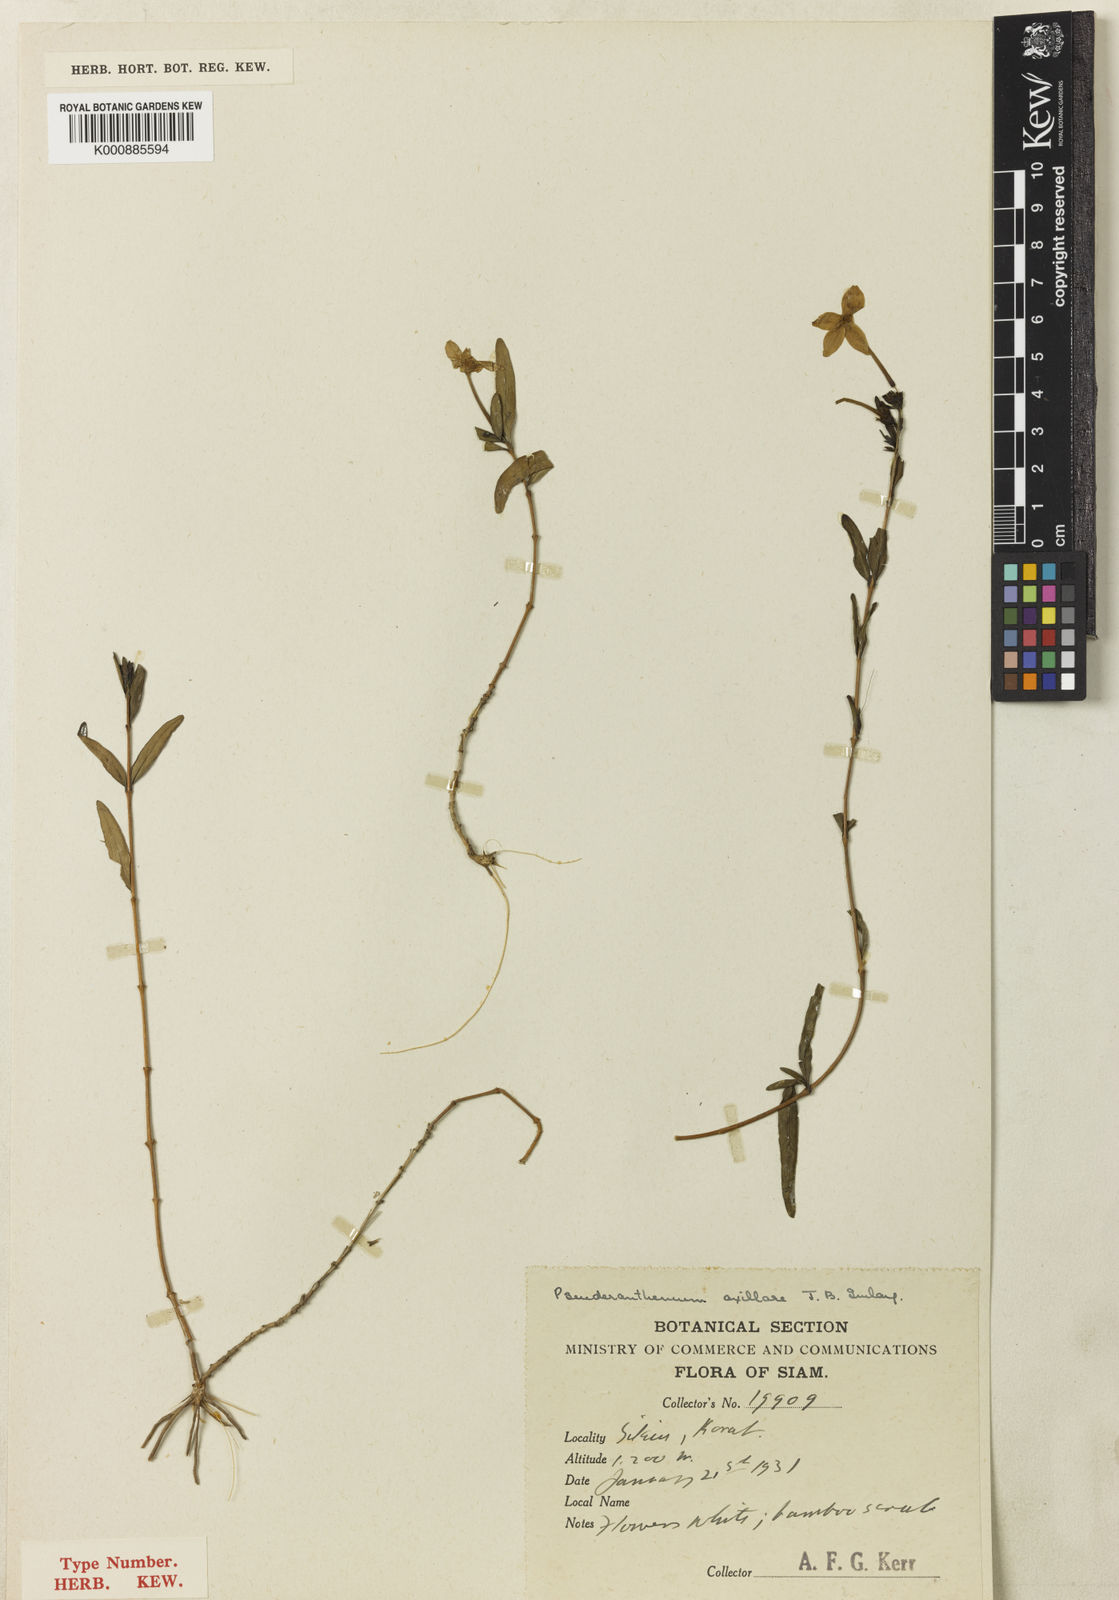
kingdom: Plantae
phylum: Tracheophyta
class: Magnoliopsida
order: Lamiales
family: Acanthaceae
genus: Pseuderanthemum
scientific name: Pseuderanthemum axillare
